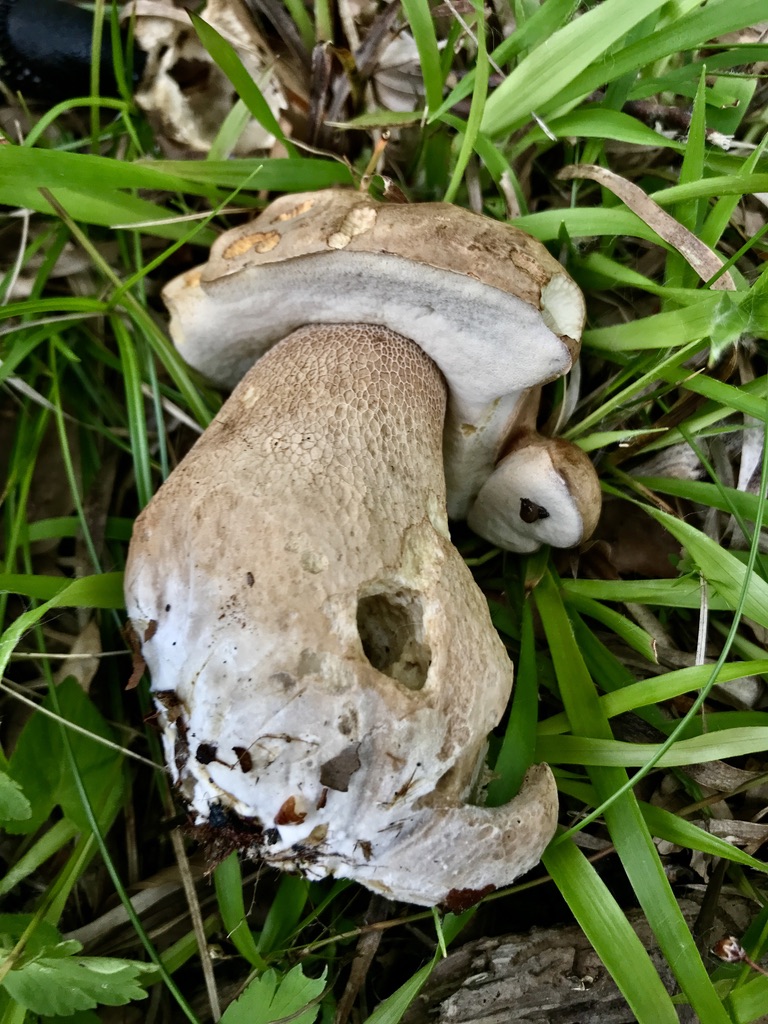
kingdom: Fungi
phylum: Basidiomycota
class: Agaricomycetes
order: Boletales
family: Boletaceae
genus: Boletus
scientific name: Boletus reticulatus
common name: sommer-rørhat
